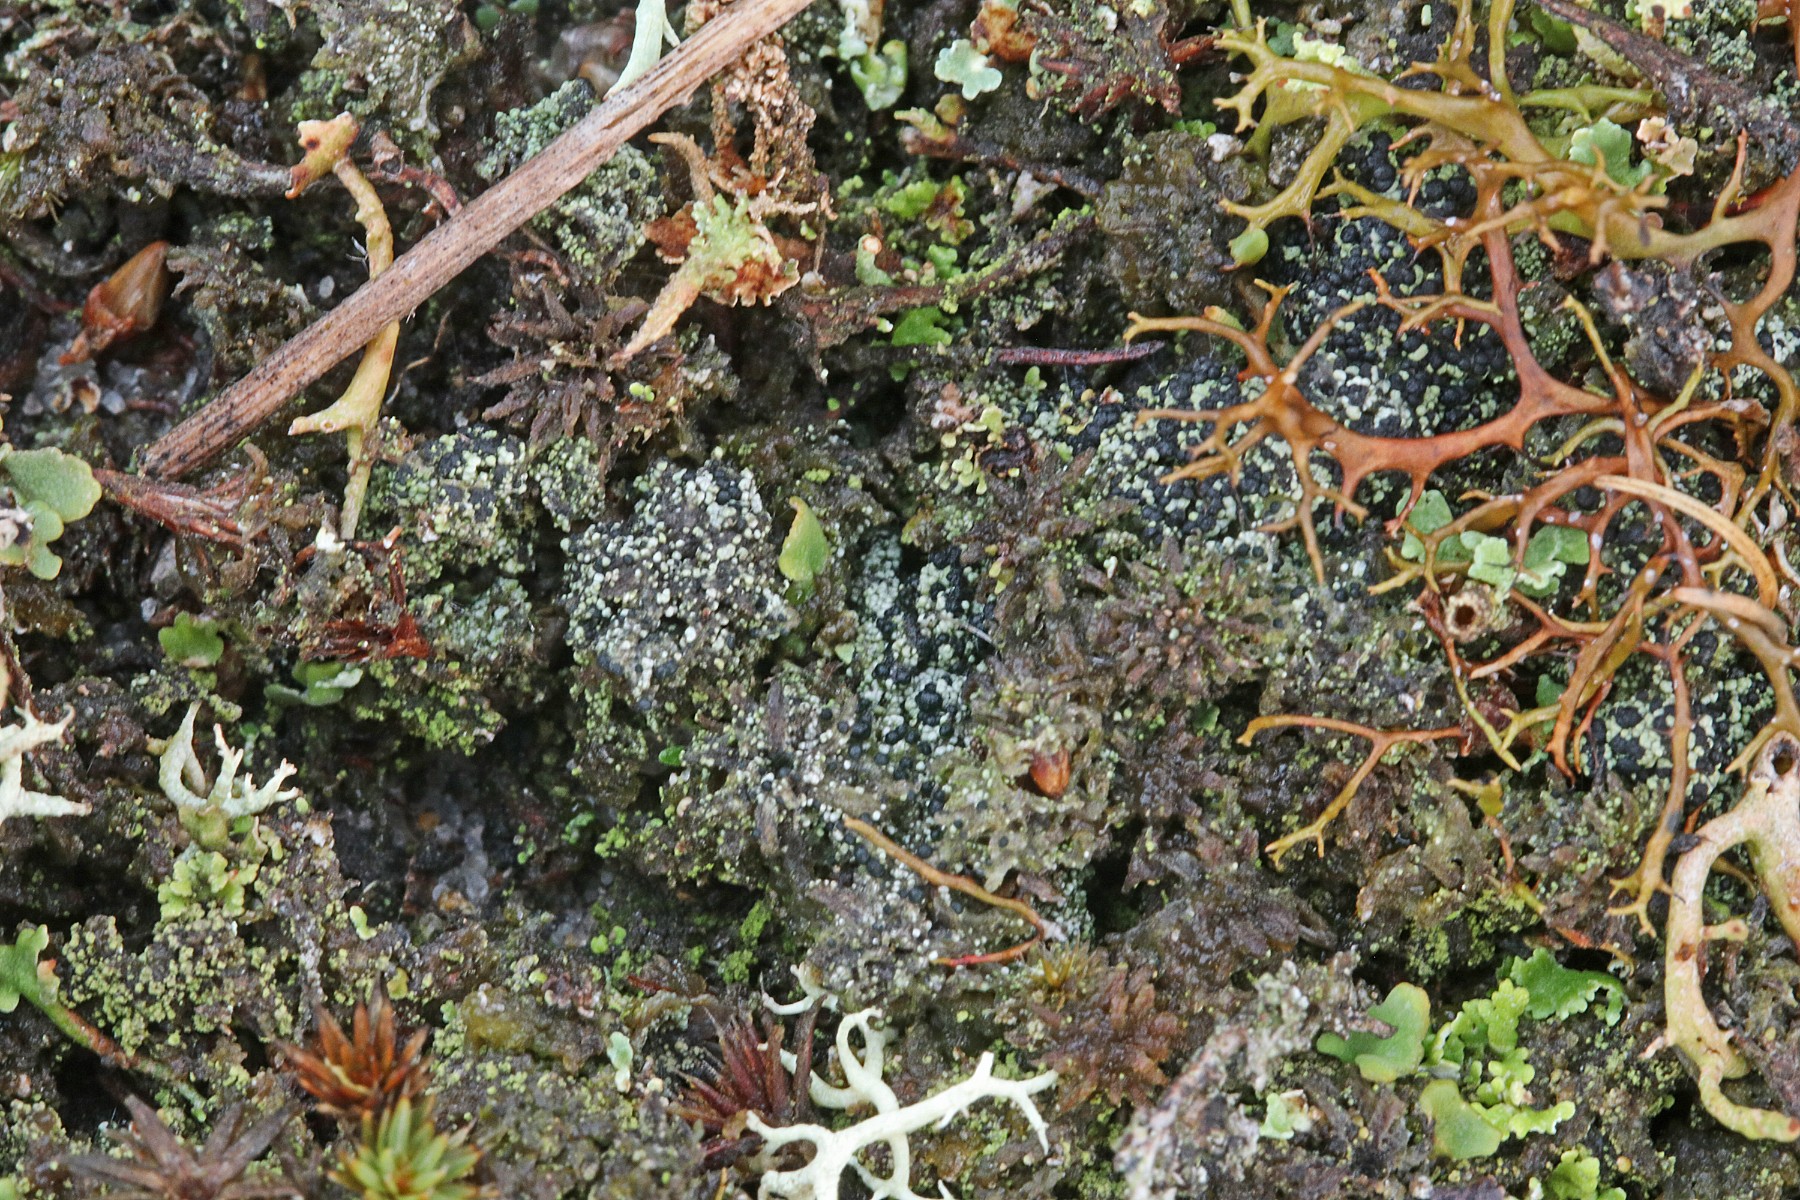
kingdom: Fungi
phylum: Ascomycota
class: Lecanoromycetes
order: Lecanorales
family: Byssolomataceae
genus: Micarea
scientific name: Micarea lignaria
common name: tørve-knaplav
